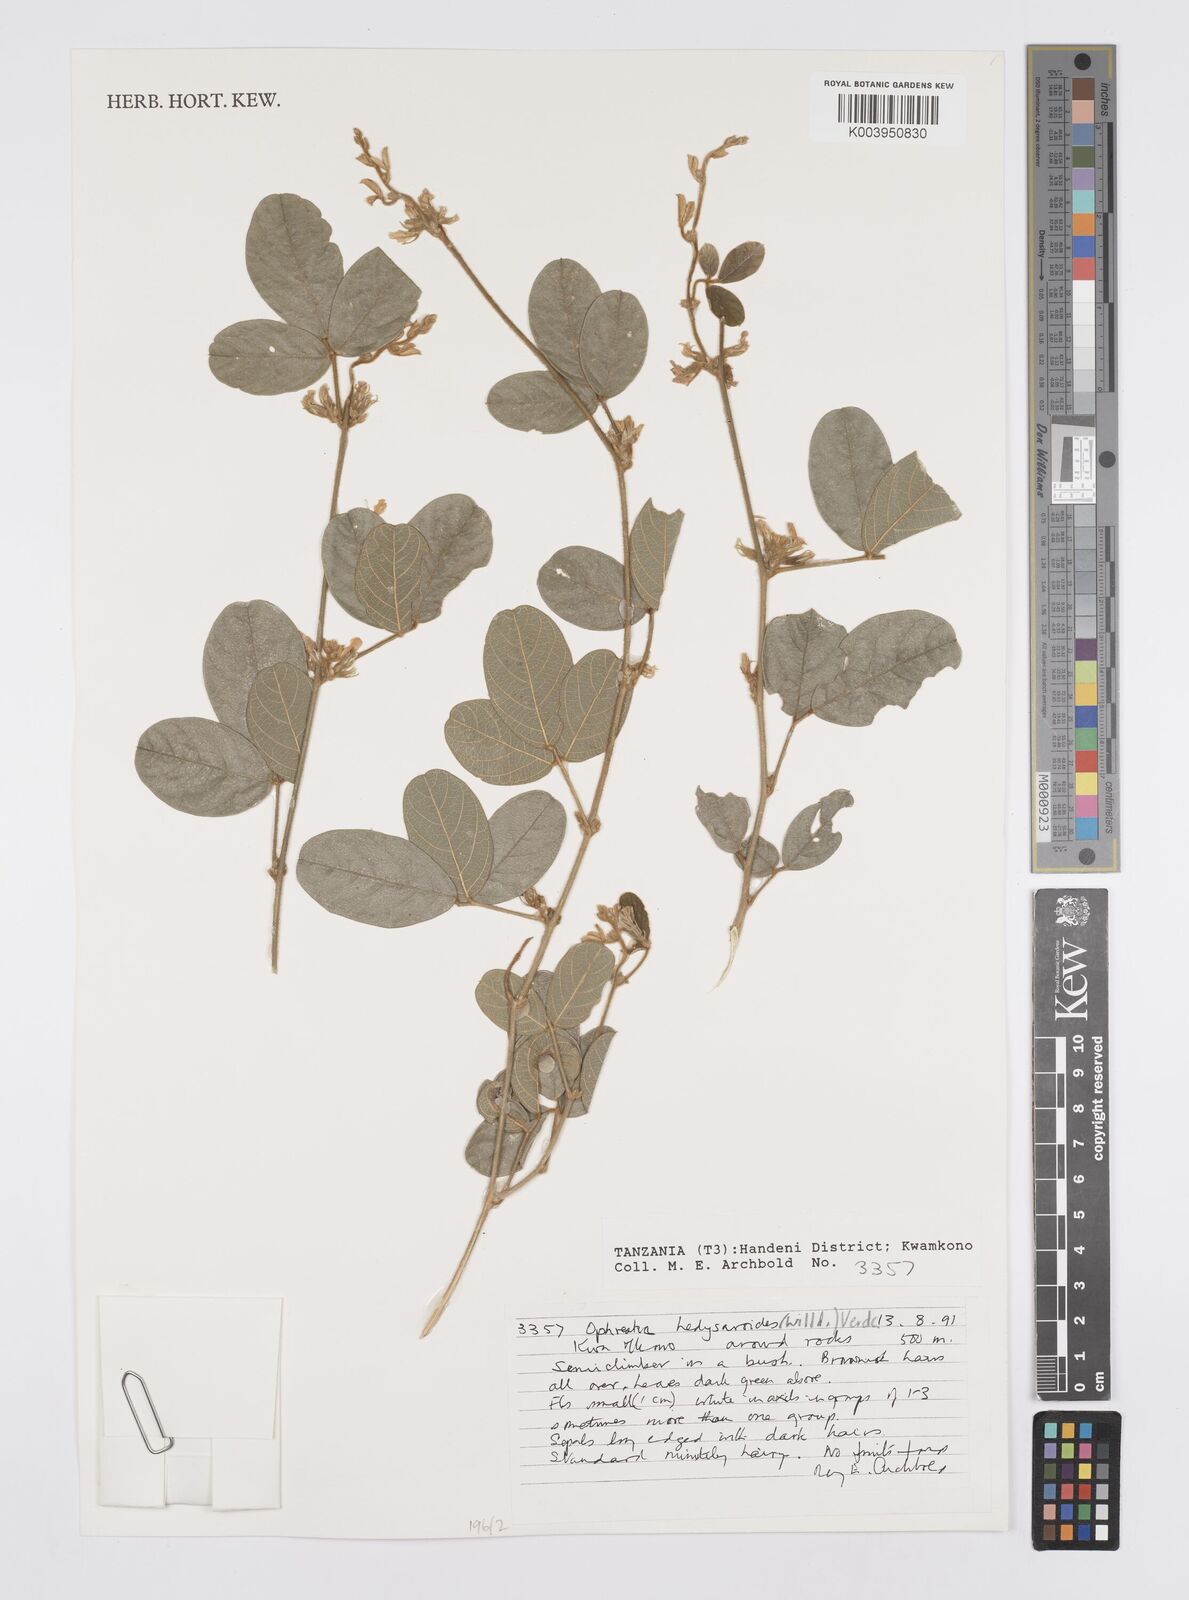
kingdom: Plantae
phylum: Tracheophyta
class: Magnoliopsida
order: Fabales
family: Fabaceae
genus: Ophrestia
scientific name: Ophrestia hedysaroides
